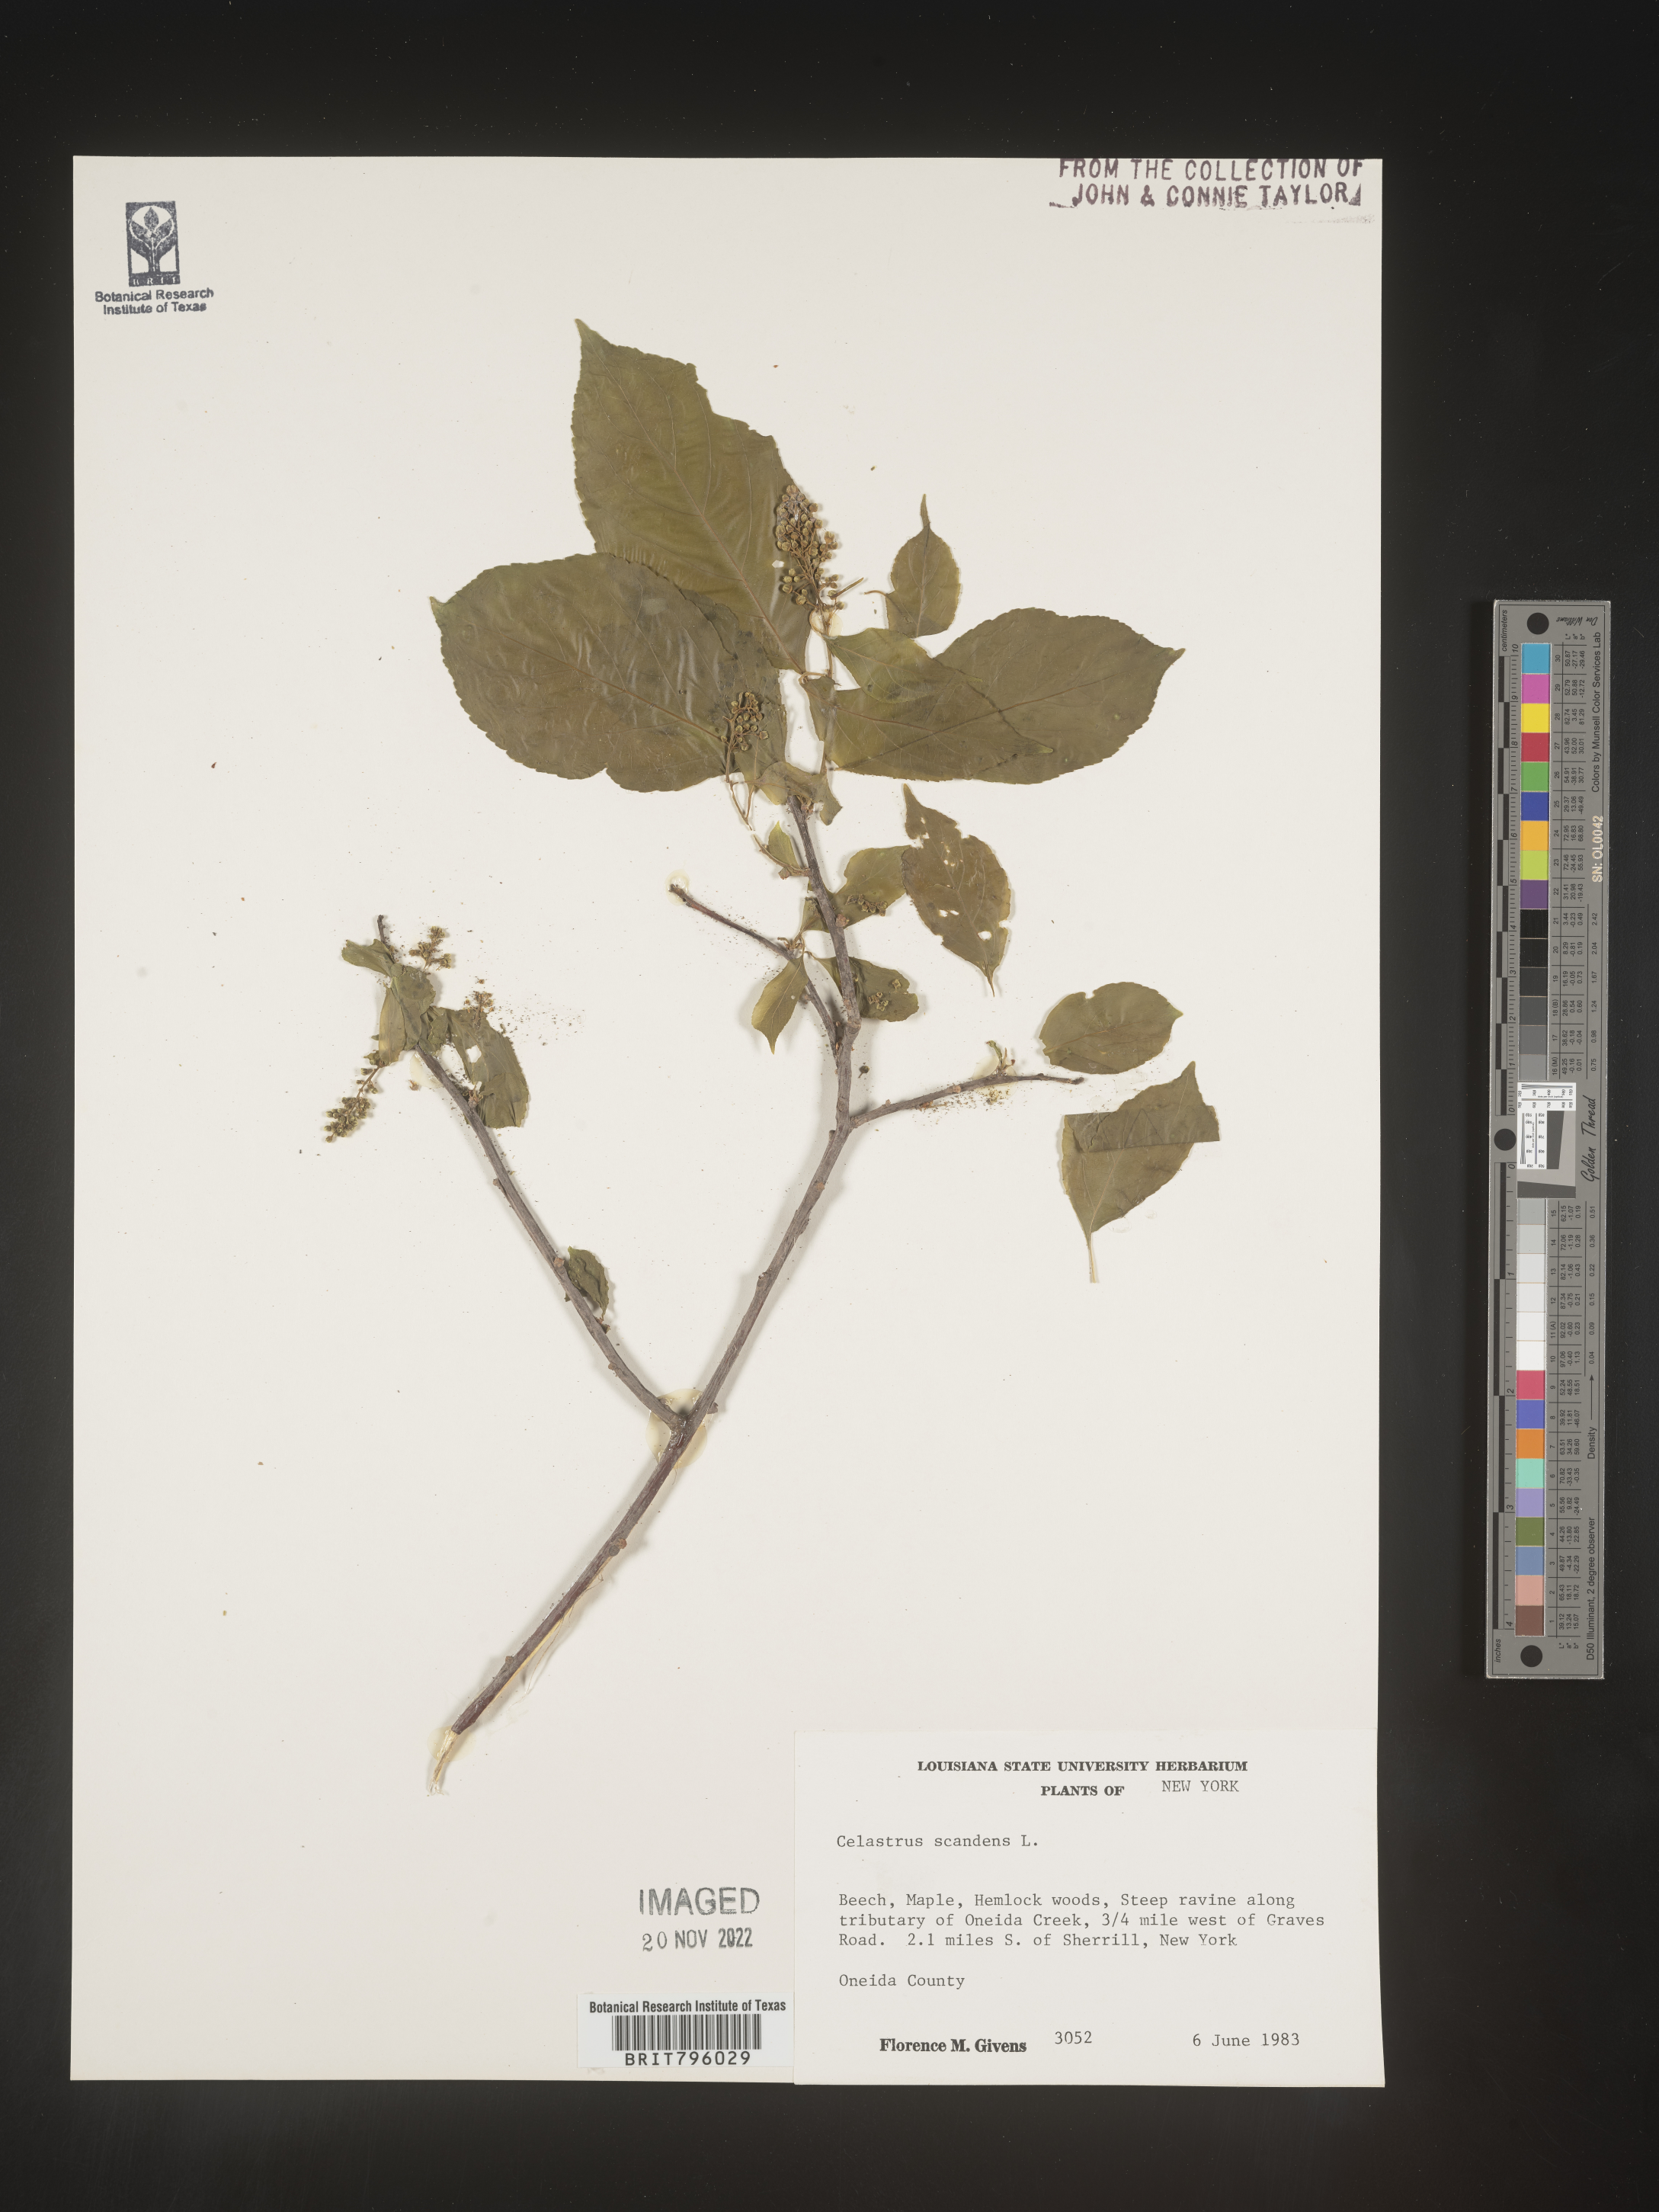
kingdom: Plantae
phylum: Tracheophyta
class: Magnoliopsida
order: Celastrales
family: Celastraceae
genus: Celastrus
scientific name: Celastrus scandens
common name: American bittersweet
